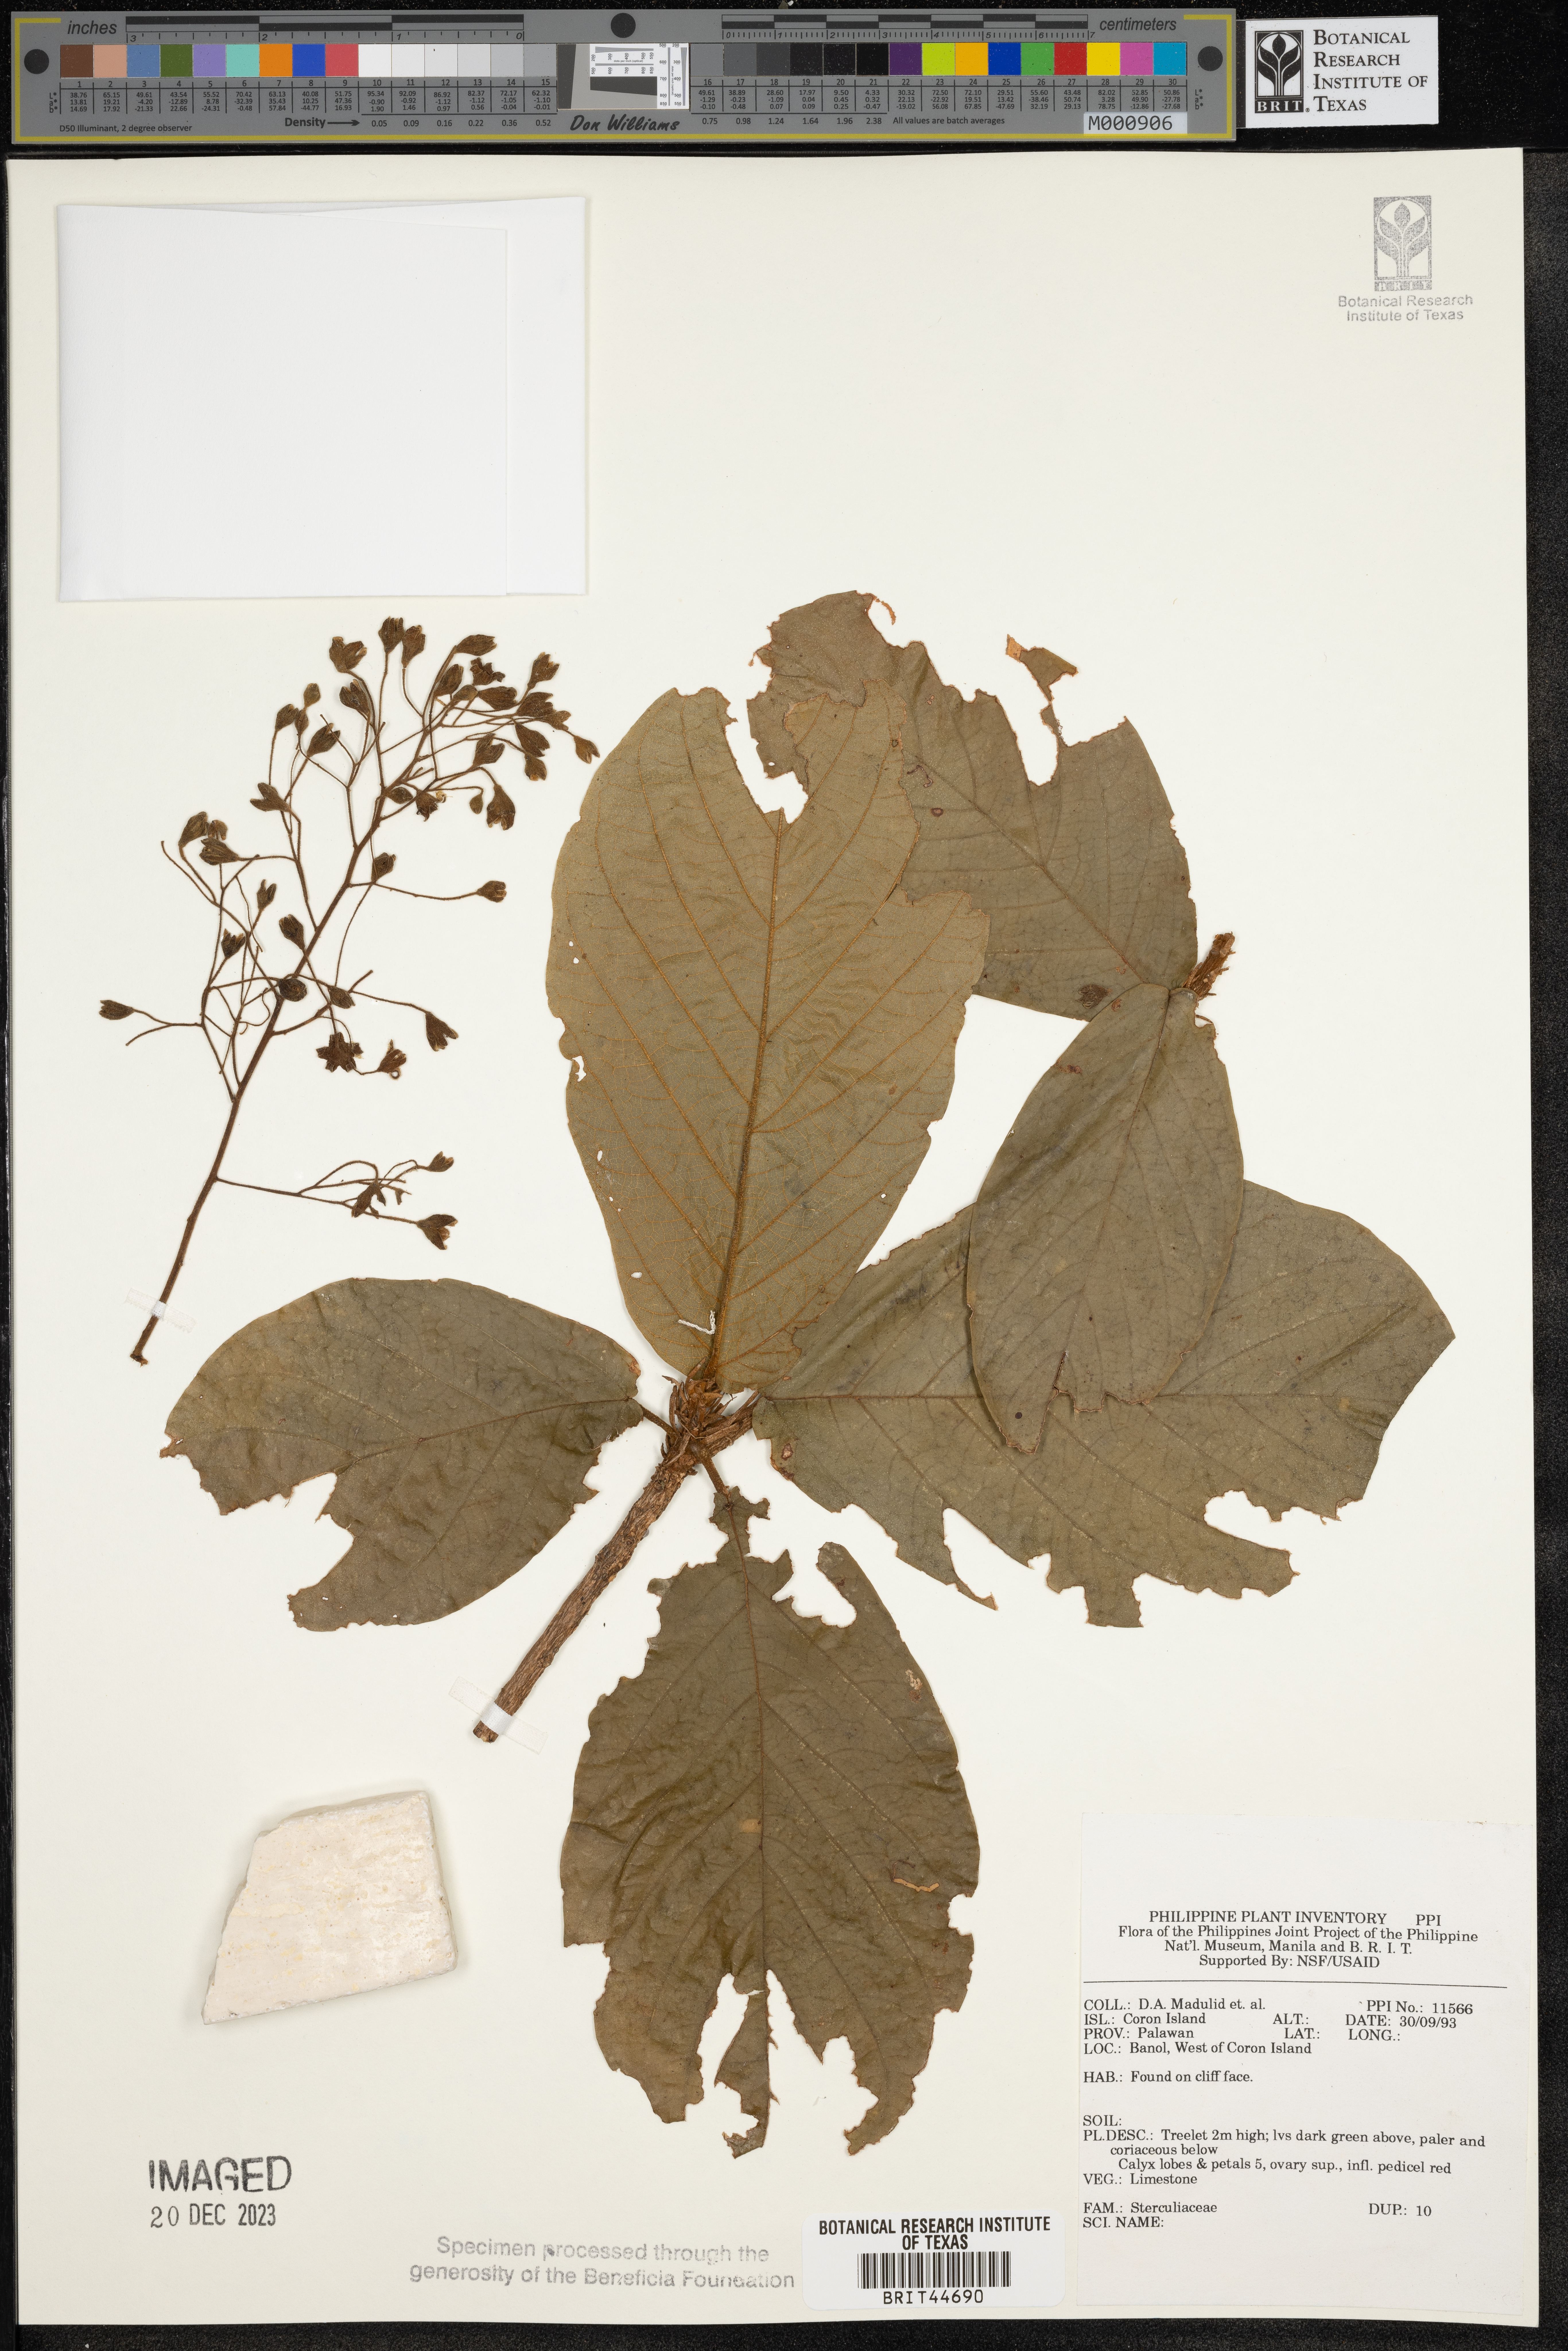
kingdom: Plantae
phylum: Tracheophyta
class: Magnoliopsida
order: Malvales
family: Sterculiaceae
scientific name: Sterculiaceae
